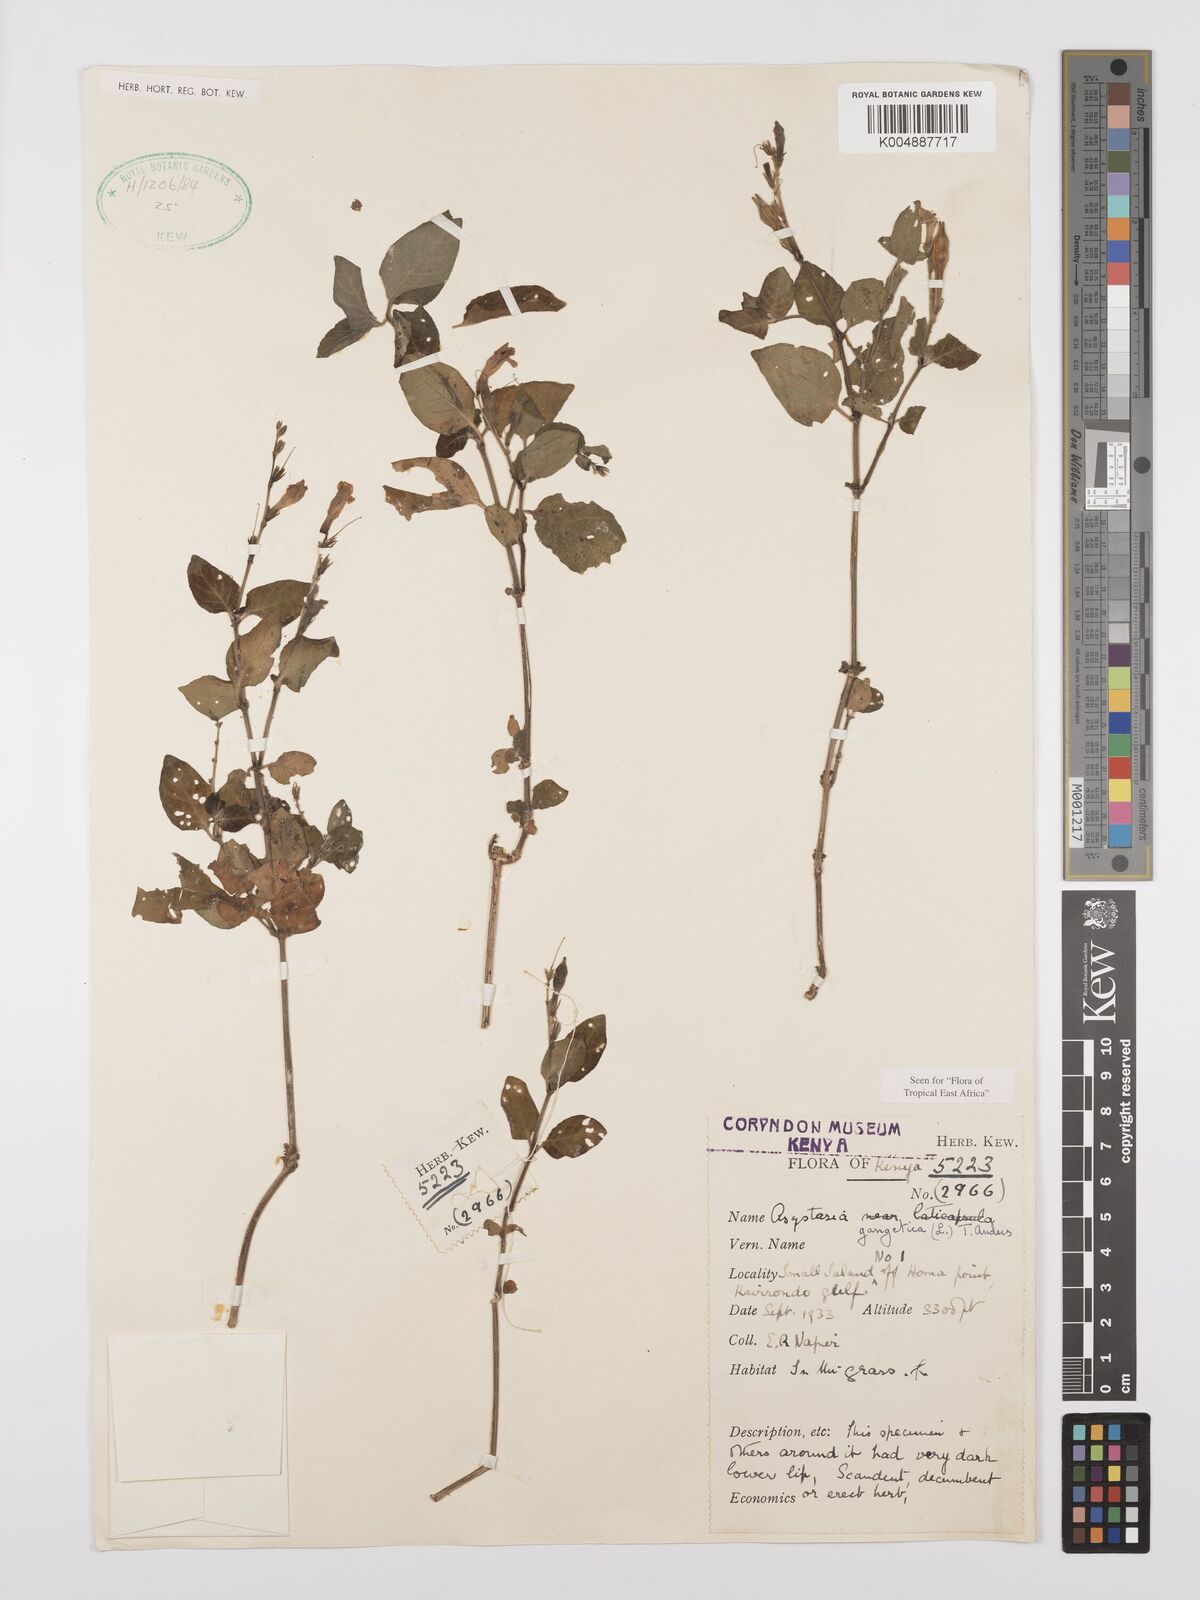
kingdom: Plantae
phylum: Tracheophyta
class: Magnoliopsida
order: Lamiales
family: Acanthaceae
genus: Asystasia
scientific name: Asystasia gangetica
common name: Chinese violet
